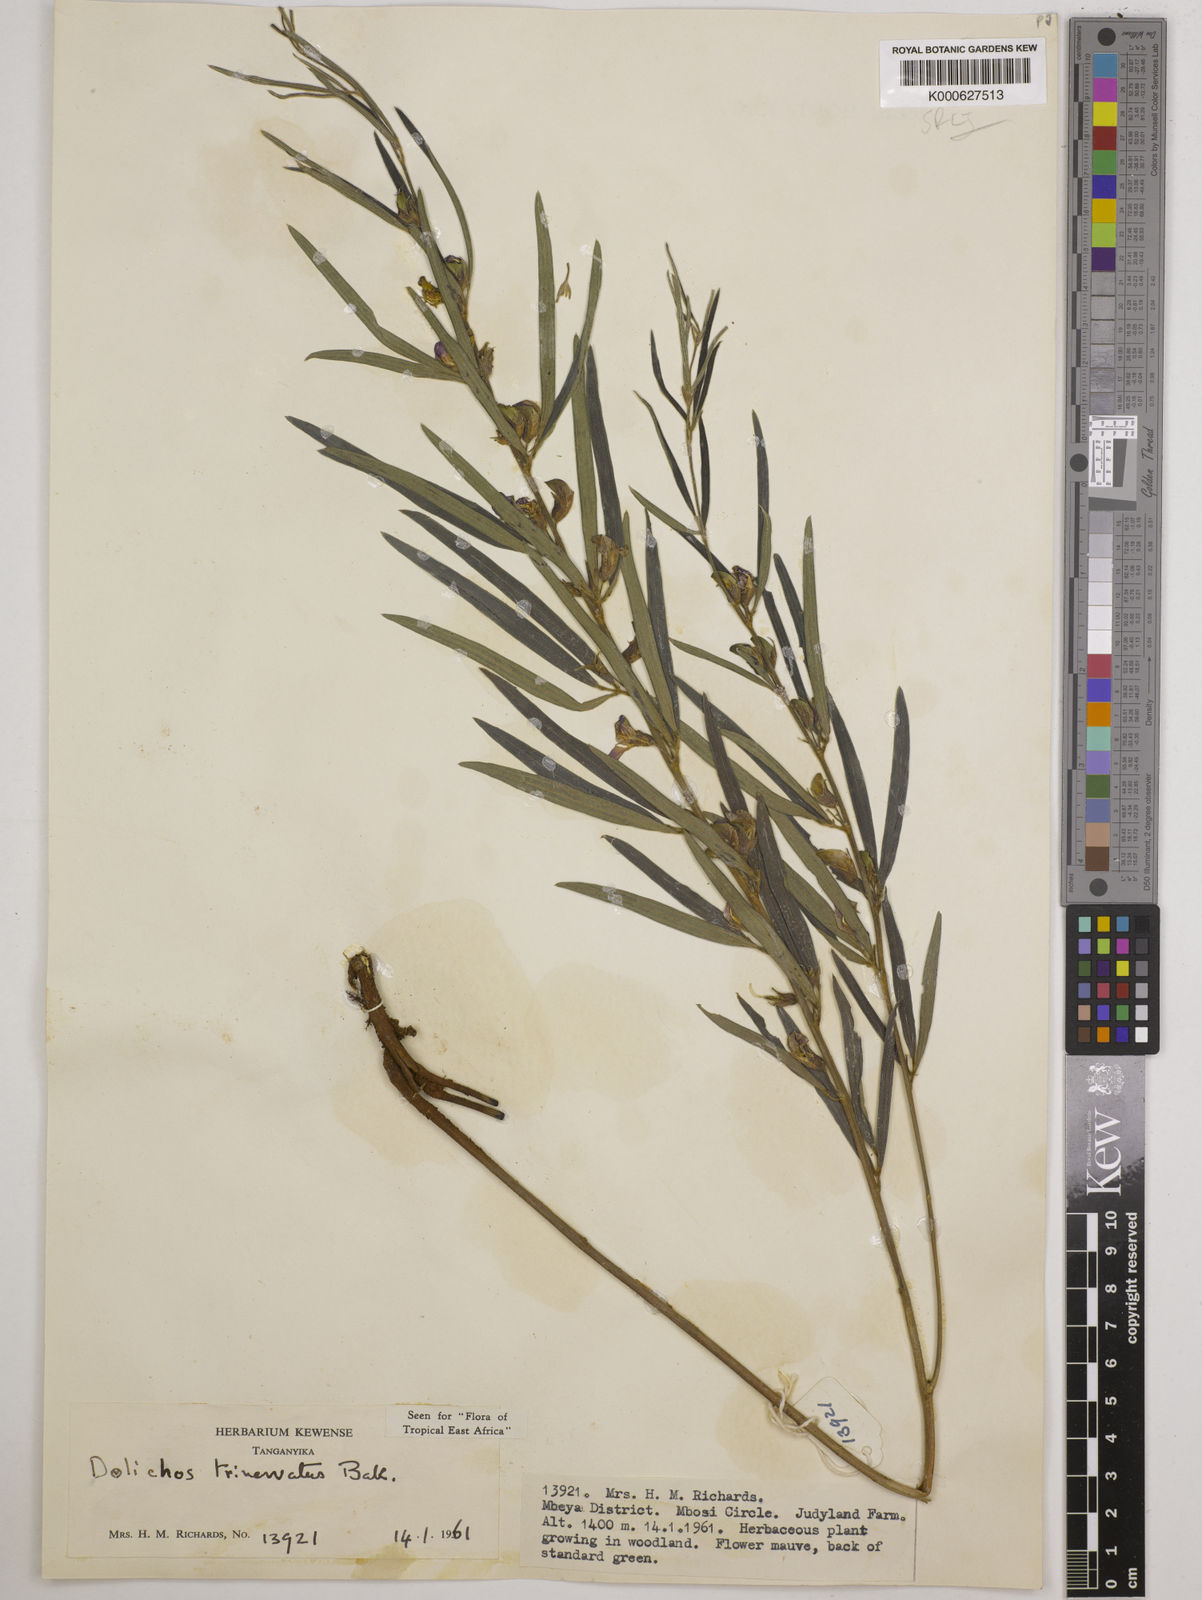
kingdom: Plantae
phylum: Tracheophyta
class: Magnoliopsida
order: Fabales
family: Fabaceae
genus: Dolichos
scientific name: Dolichos trinervatus
